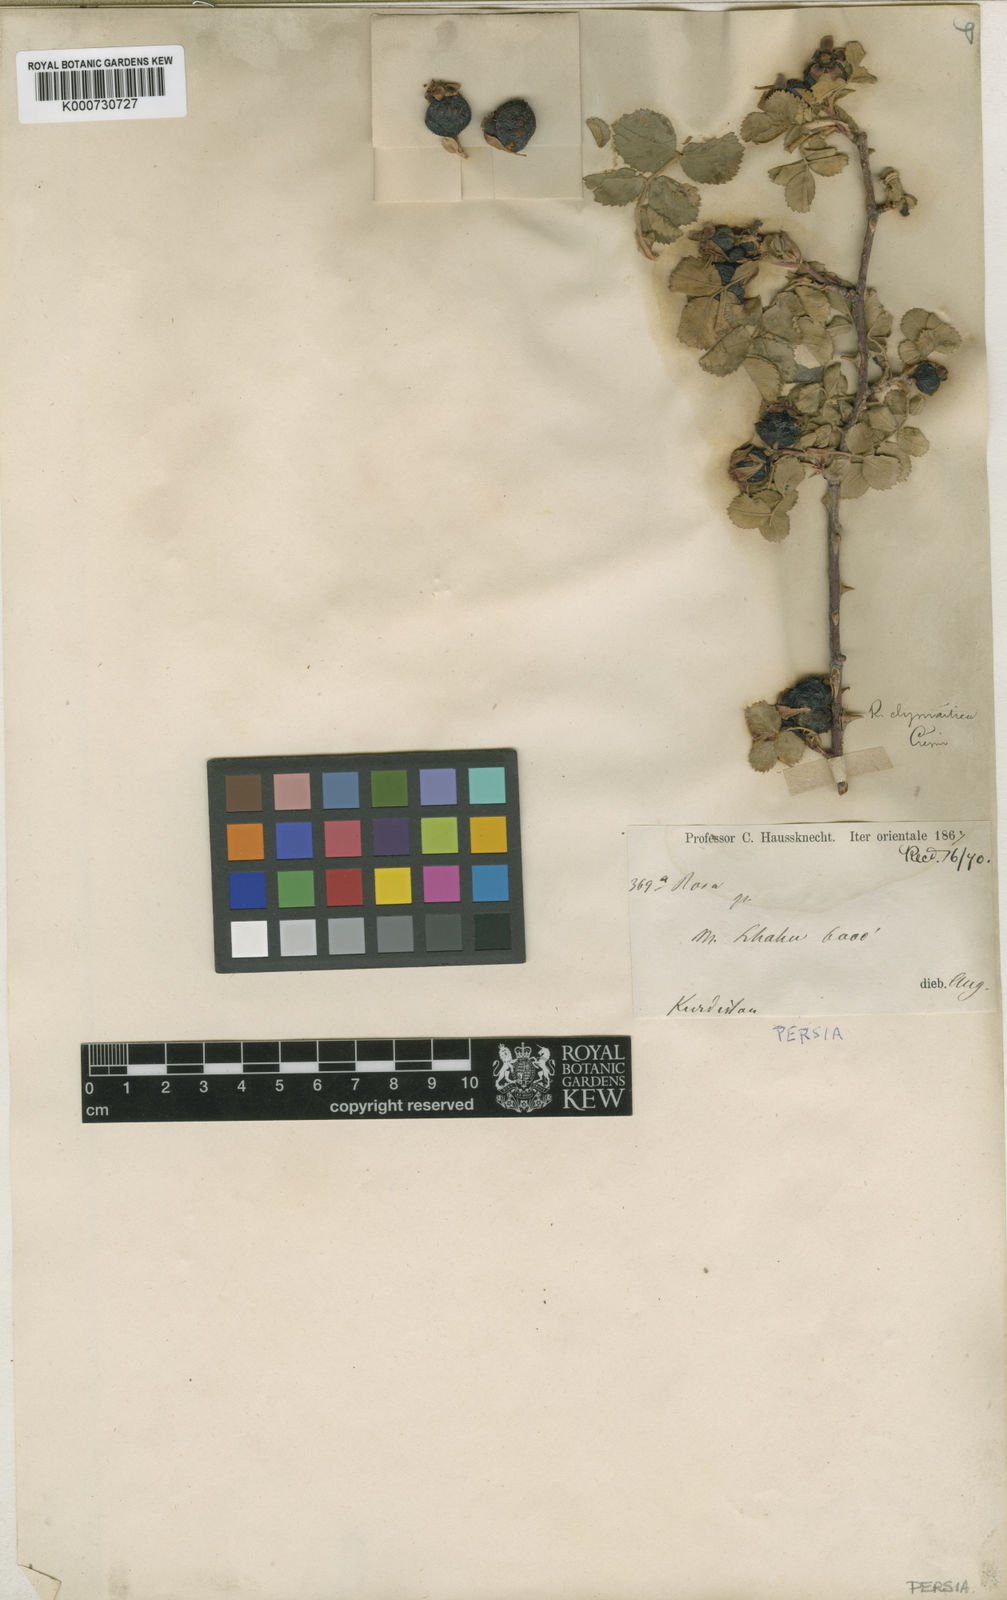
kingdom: Plantae
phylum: Tracheophyta
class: Magnoliopsida
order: Rosales
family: Rosaceae
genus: Rosa
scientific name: Rosa elymaitica
